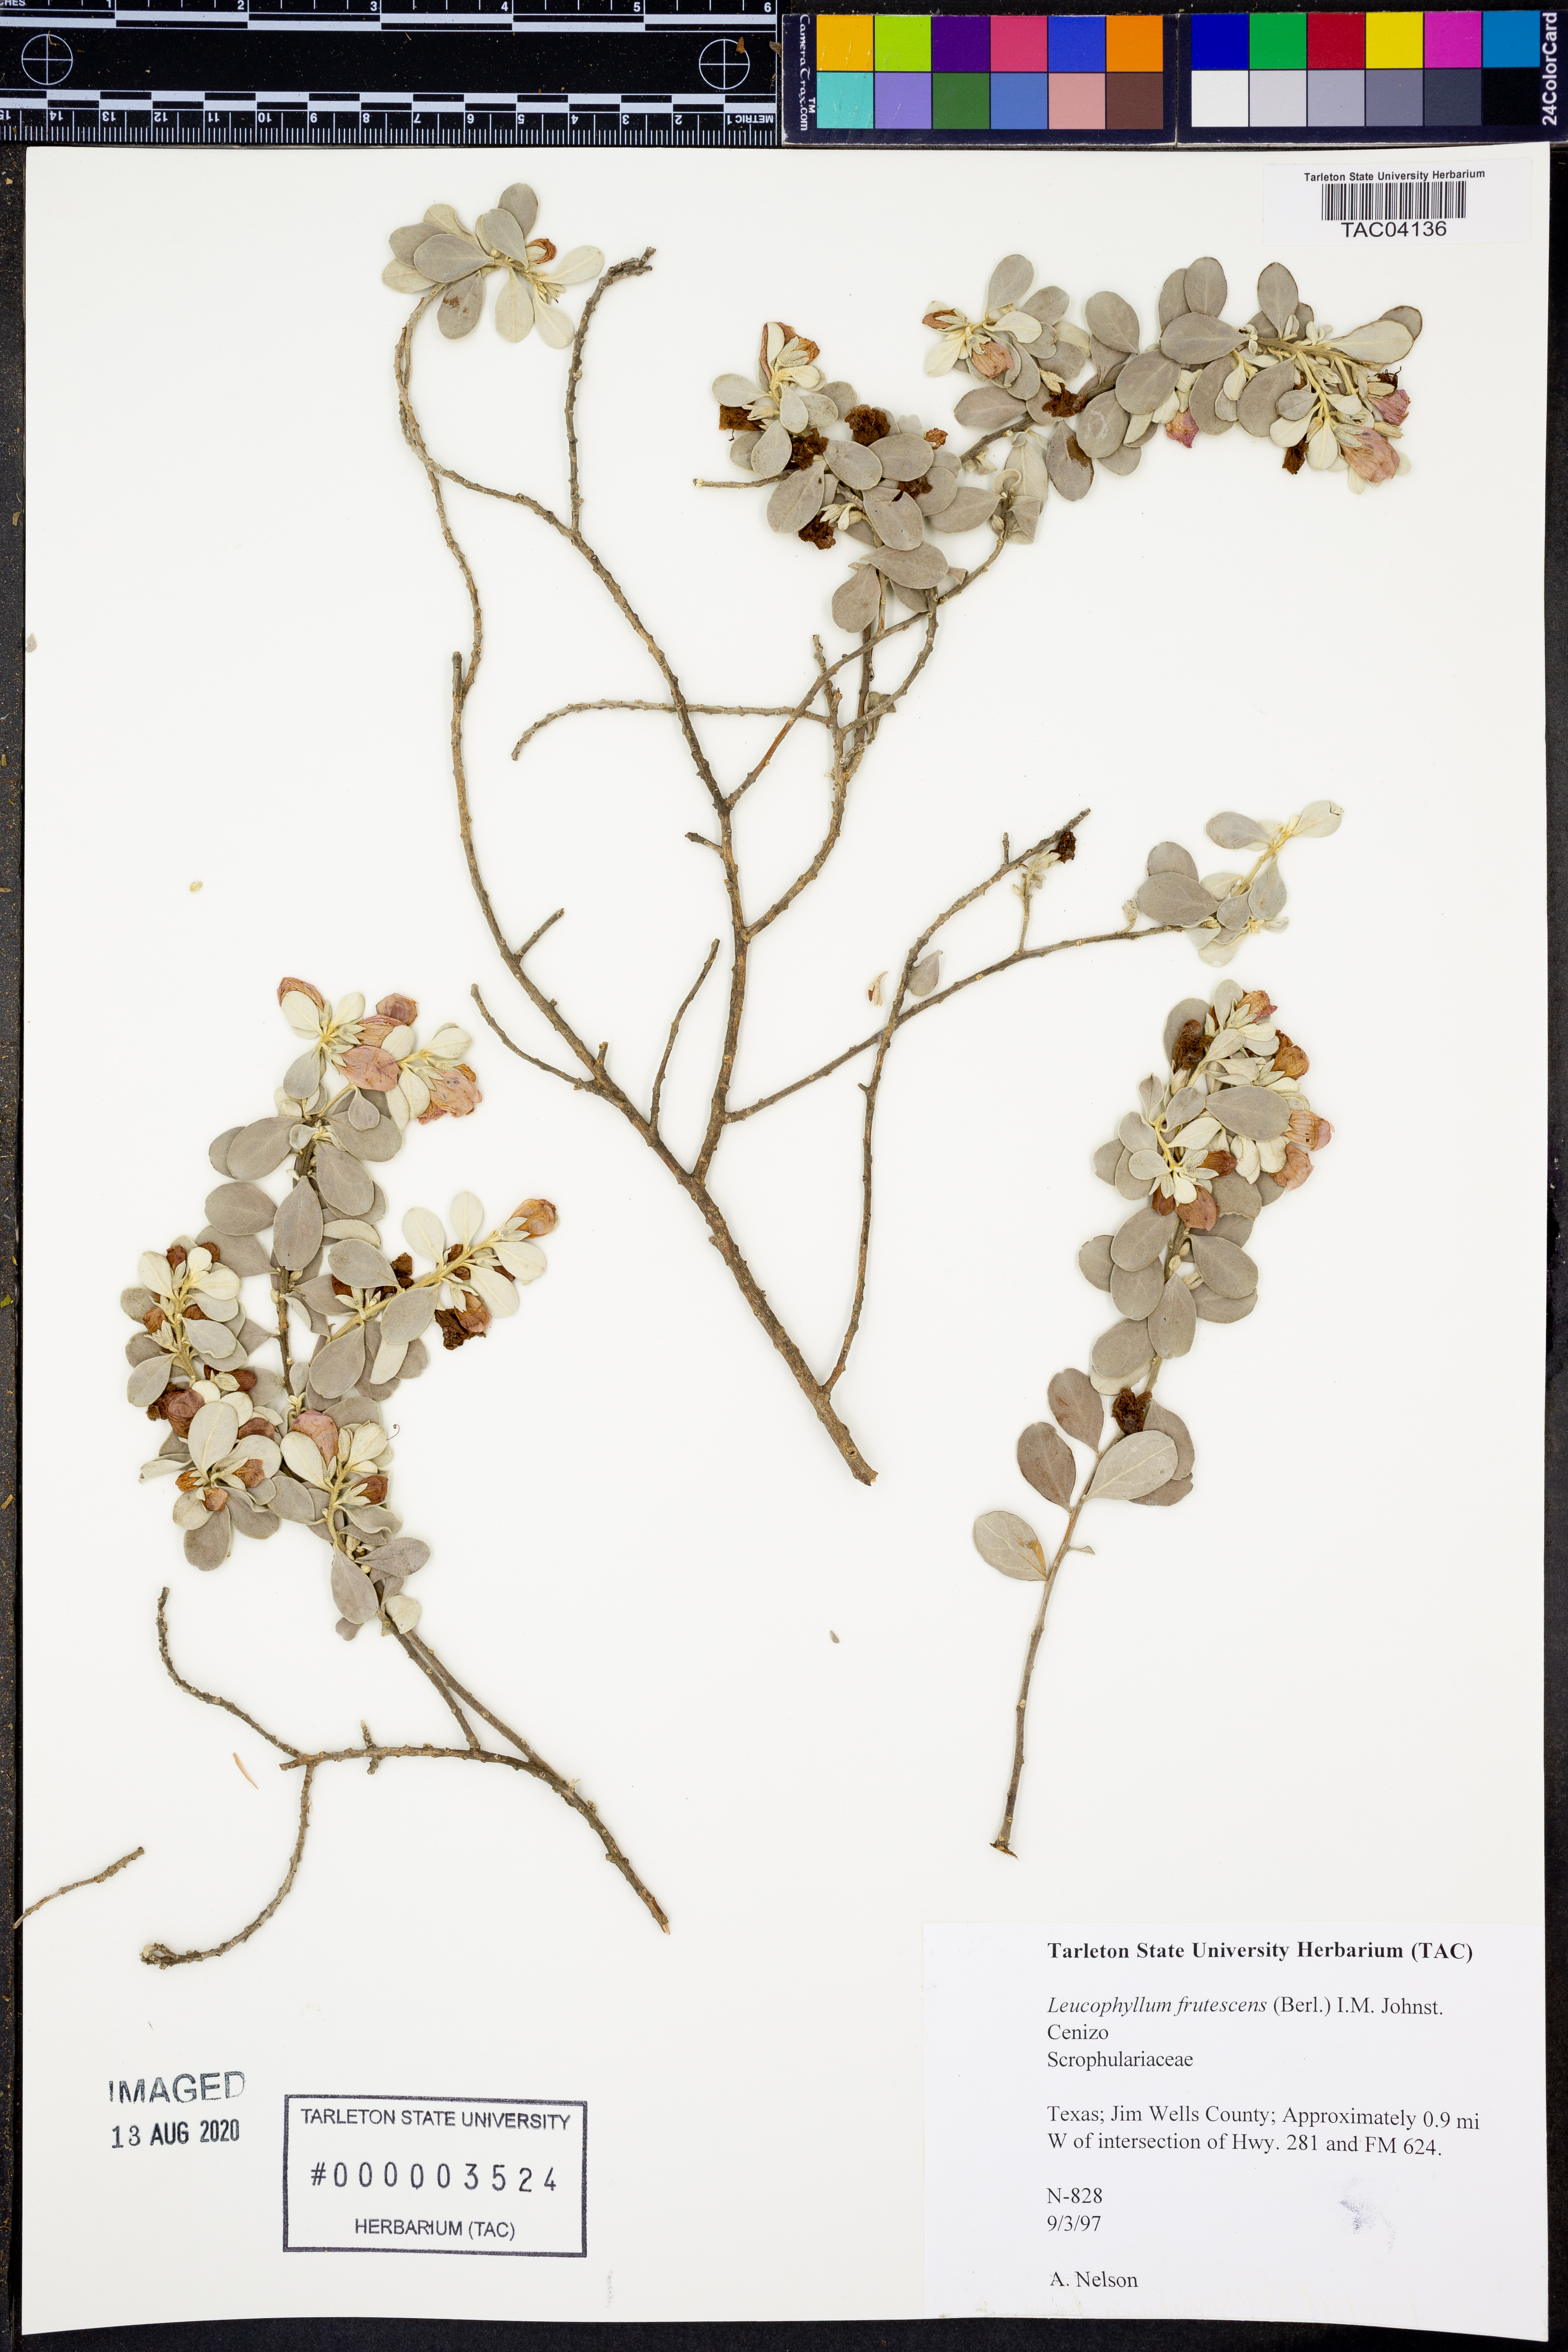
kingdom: Plantae
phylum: Tracheophyta
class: Magnoliopsida
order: Lamiales
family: Scrophulariaceae
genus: Leucophyllum
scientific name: Leucophyllum frutescens
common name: Texas silverleaf
